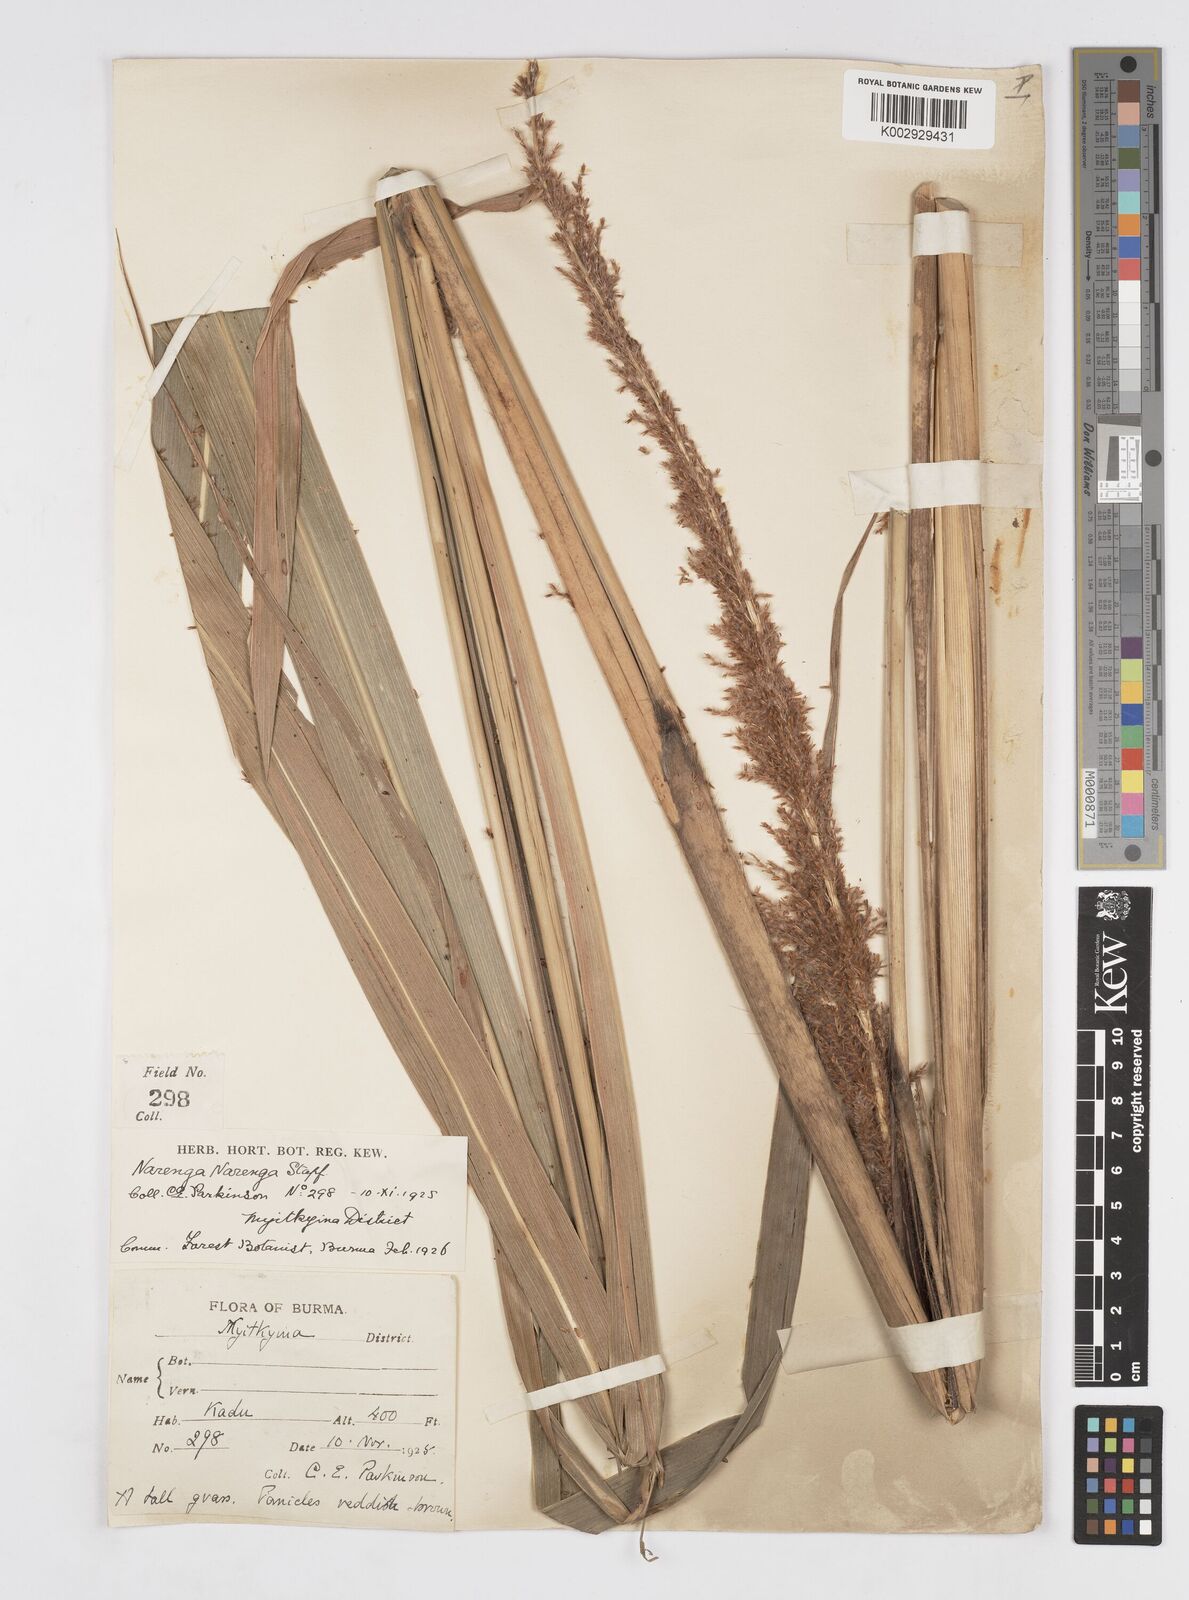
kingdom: Plantae
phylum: Tracheophyta
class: Liliopsida
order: Poales
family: Poaceae
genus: Narenga
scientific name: Narenga porphyrocoma
